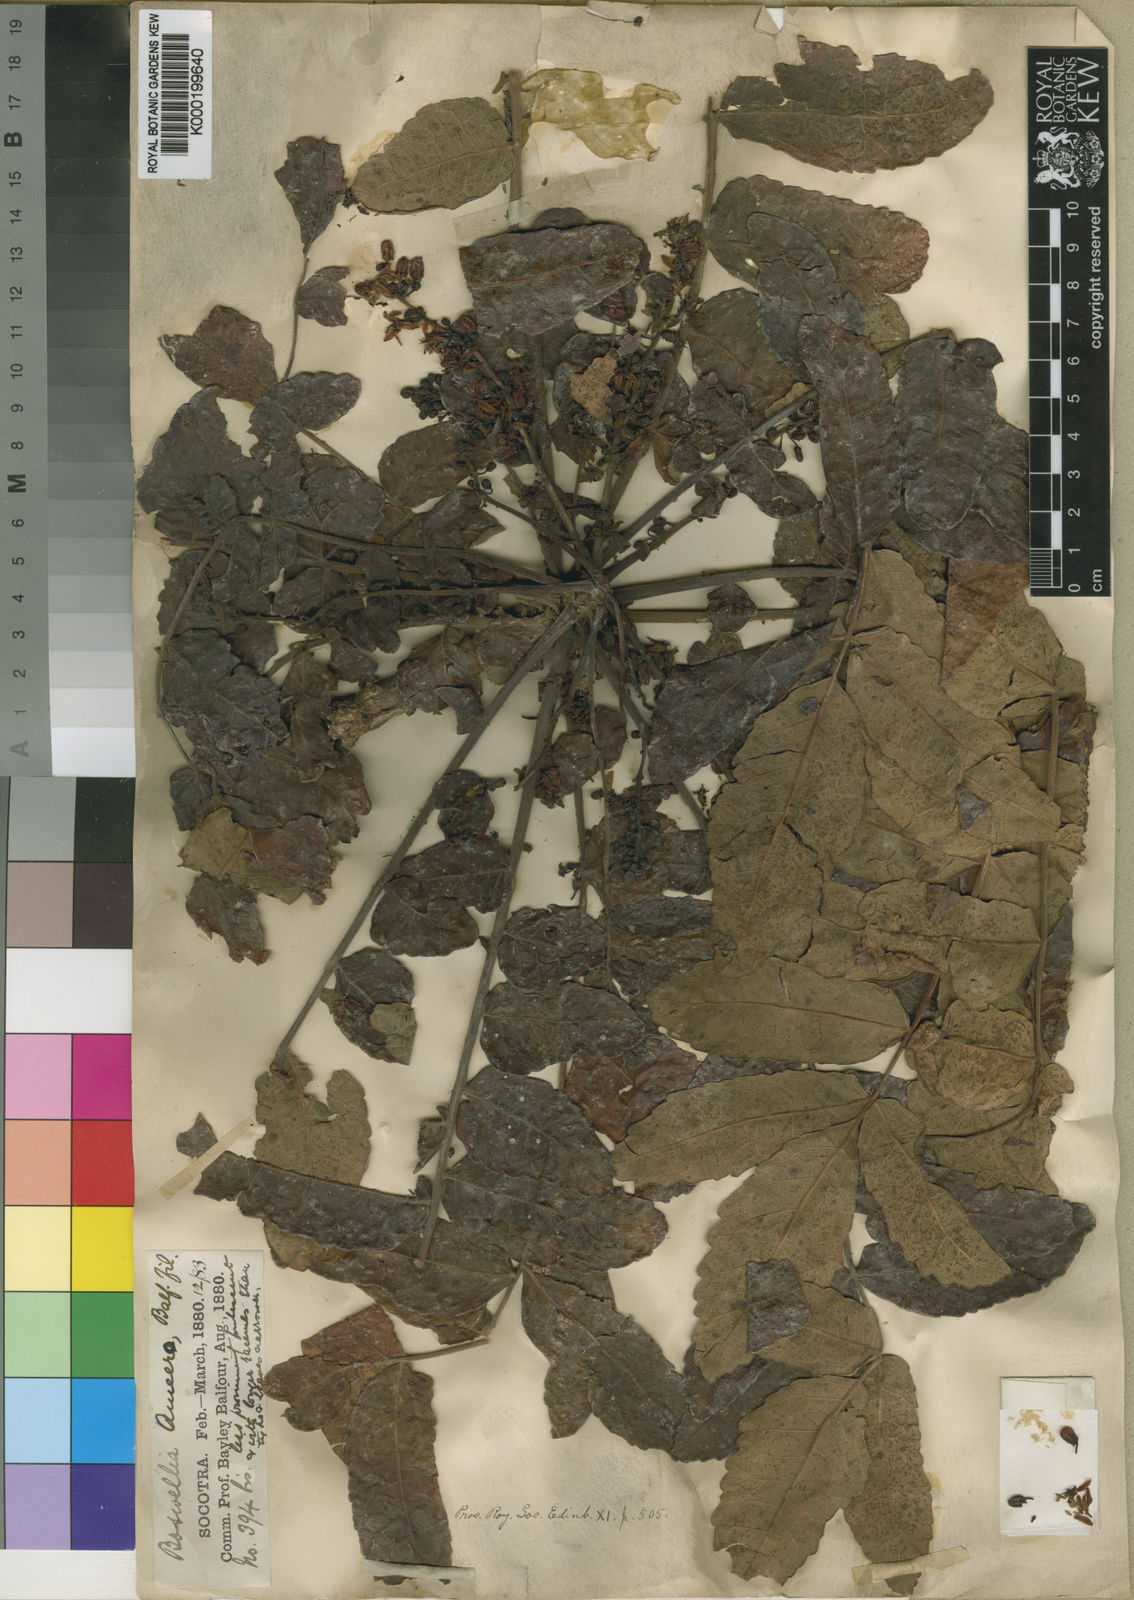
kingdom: Plantae
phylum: Tracheophyta
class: Magnoliopsida
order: Sapindales
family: Burseraceae
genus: Boswellia
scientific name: Boswellia ameero
